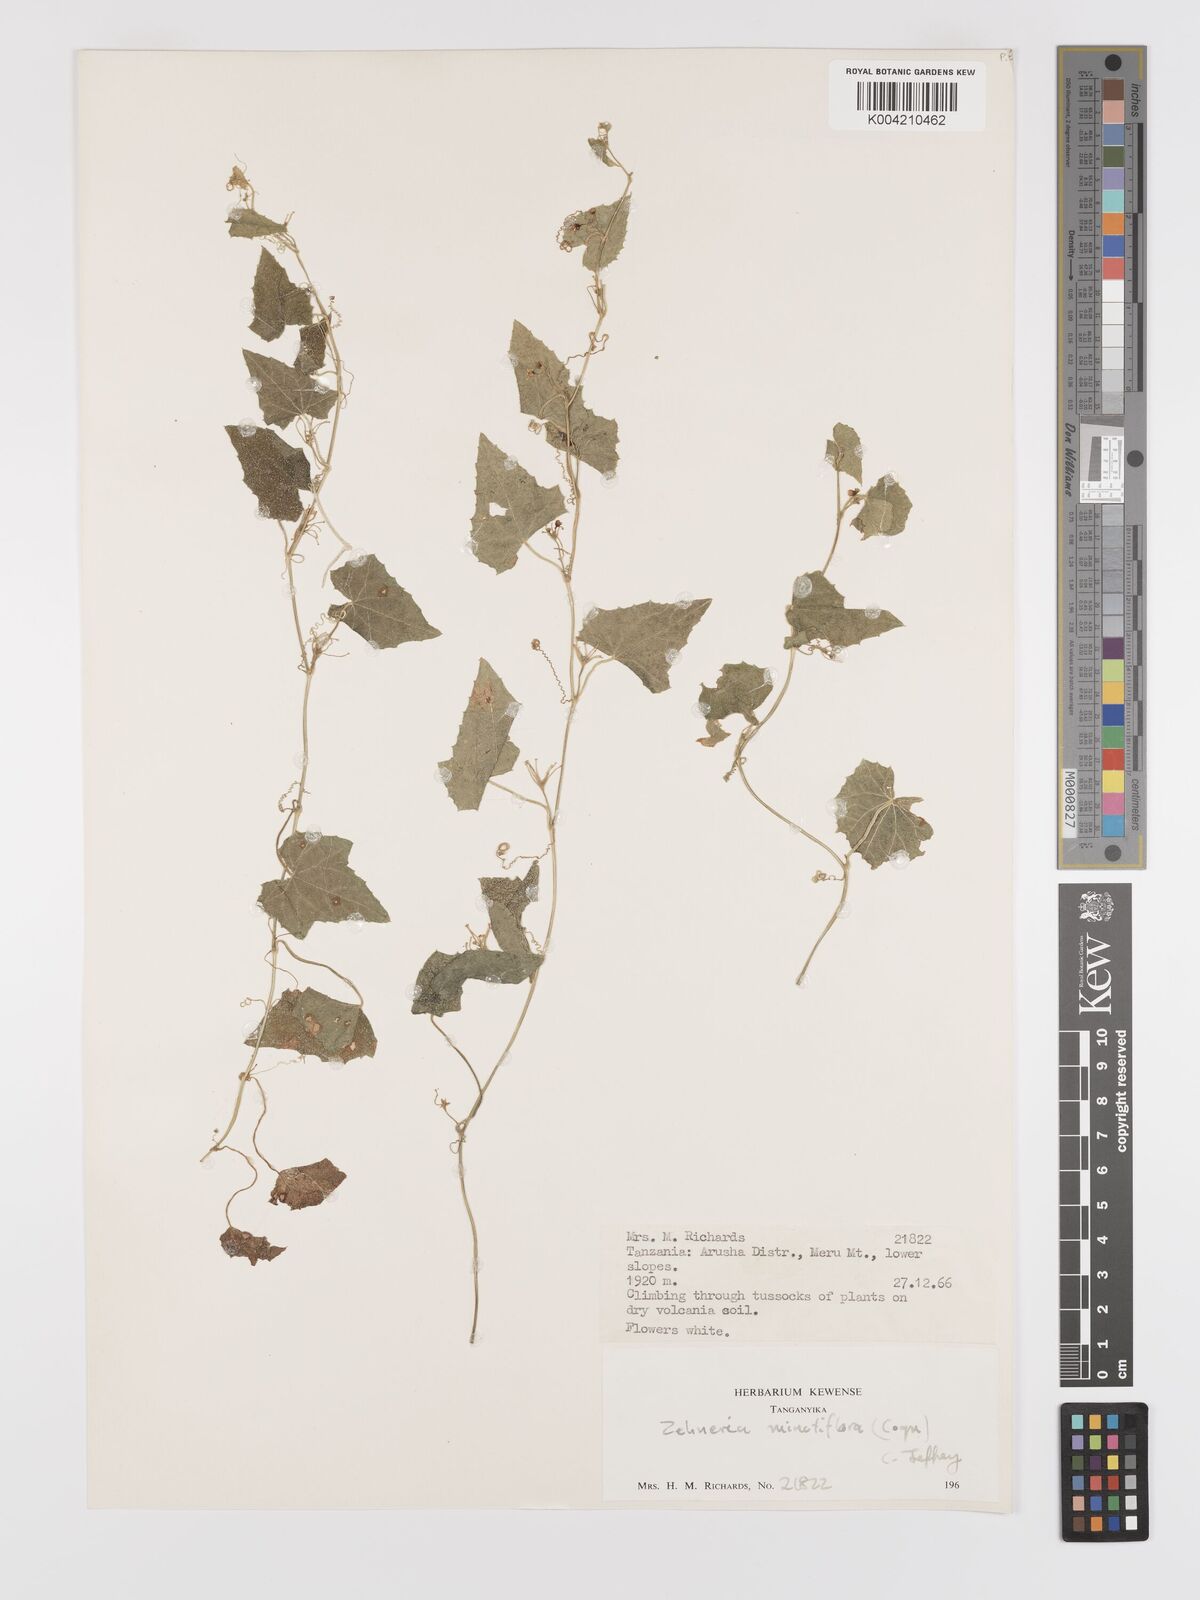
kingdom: Plantae
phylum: Tracheophyta
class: Magnoliopsida
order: Cucurbitales
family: Cucurbitaceae
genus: Zehneria
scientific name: Zehneria minutiflora
